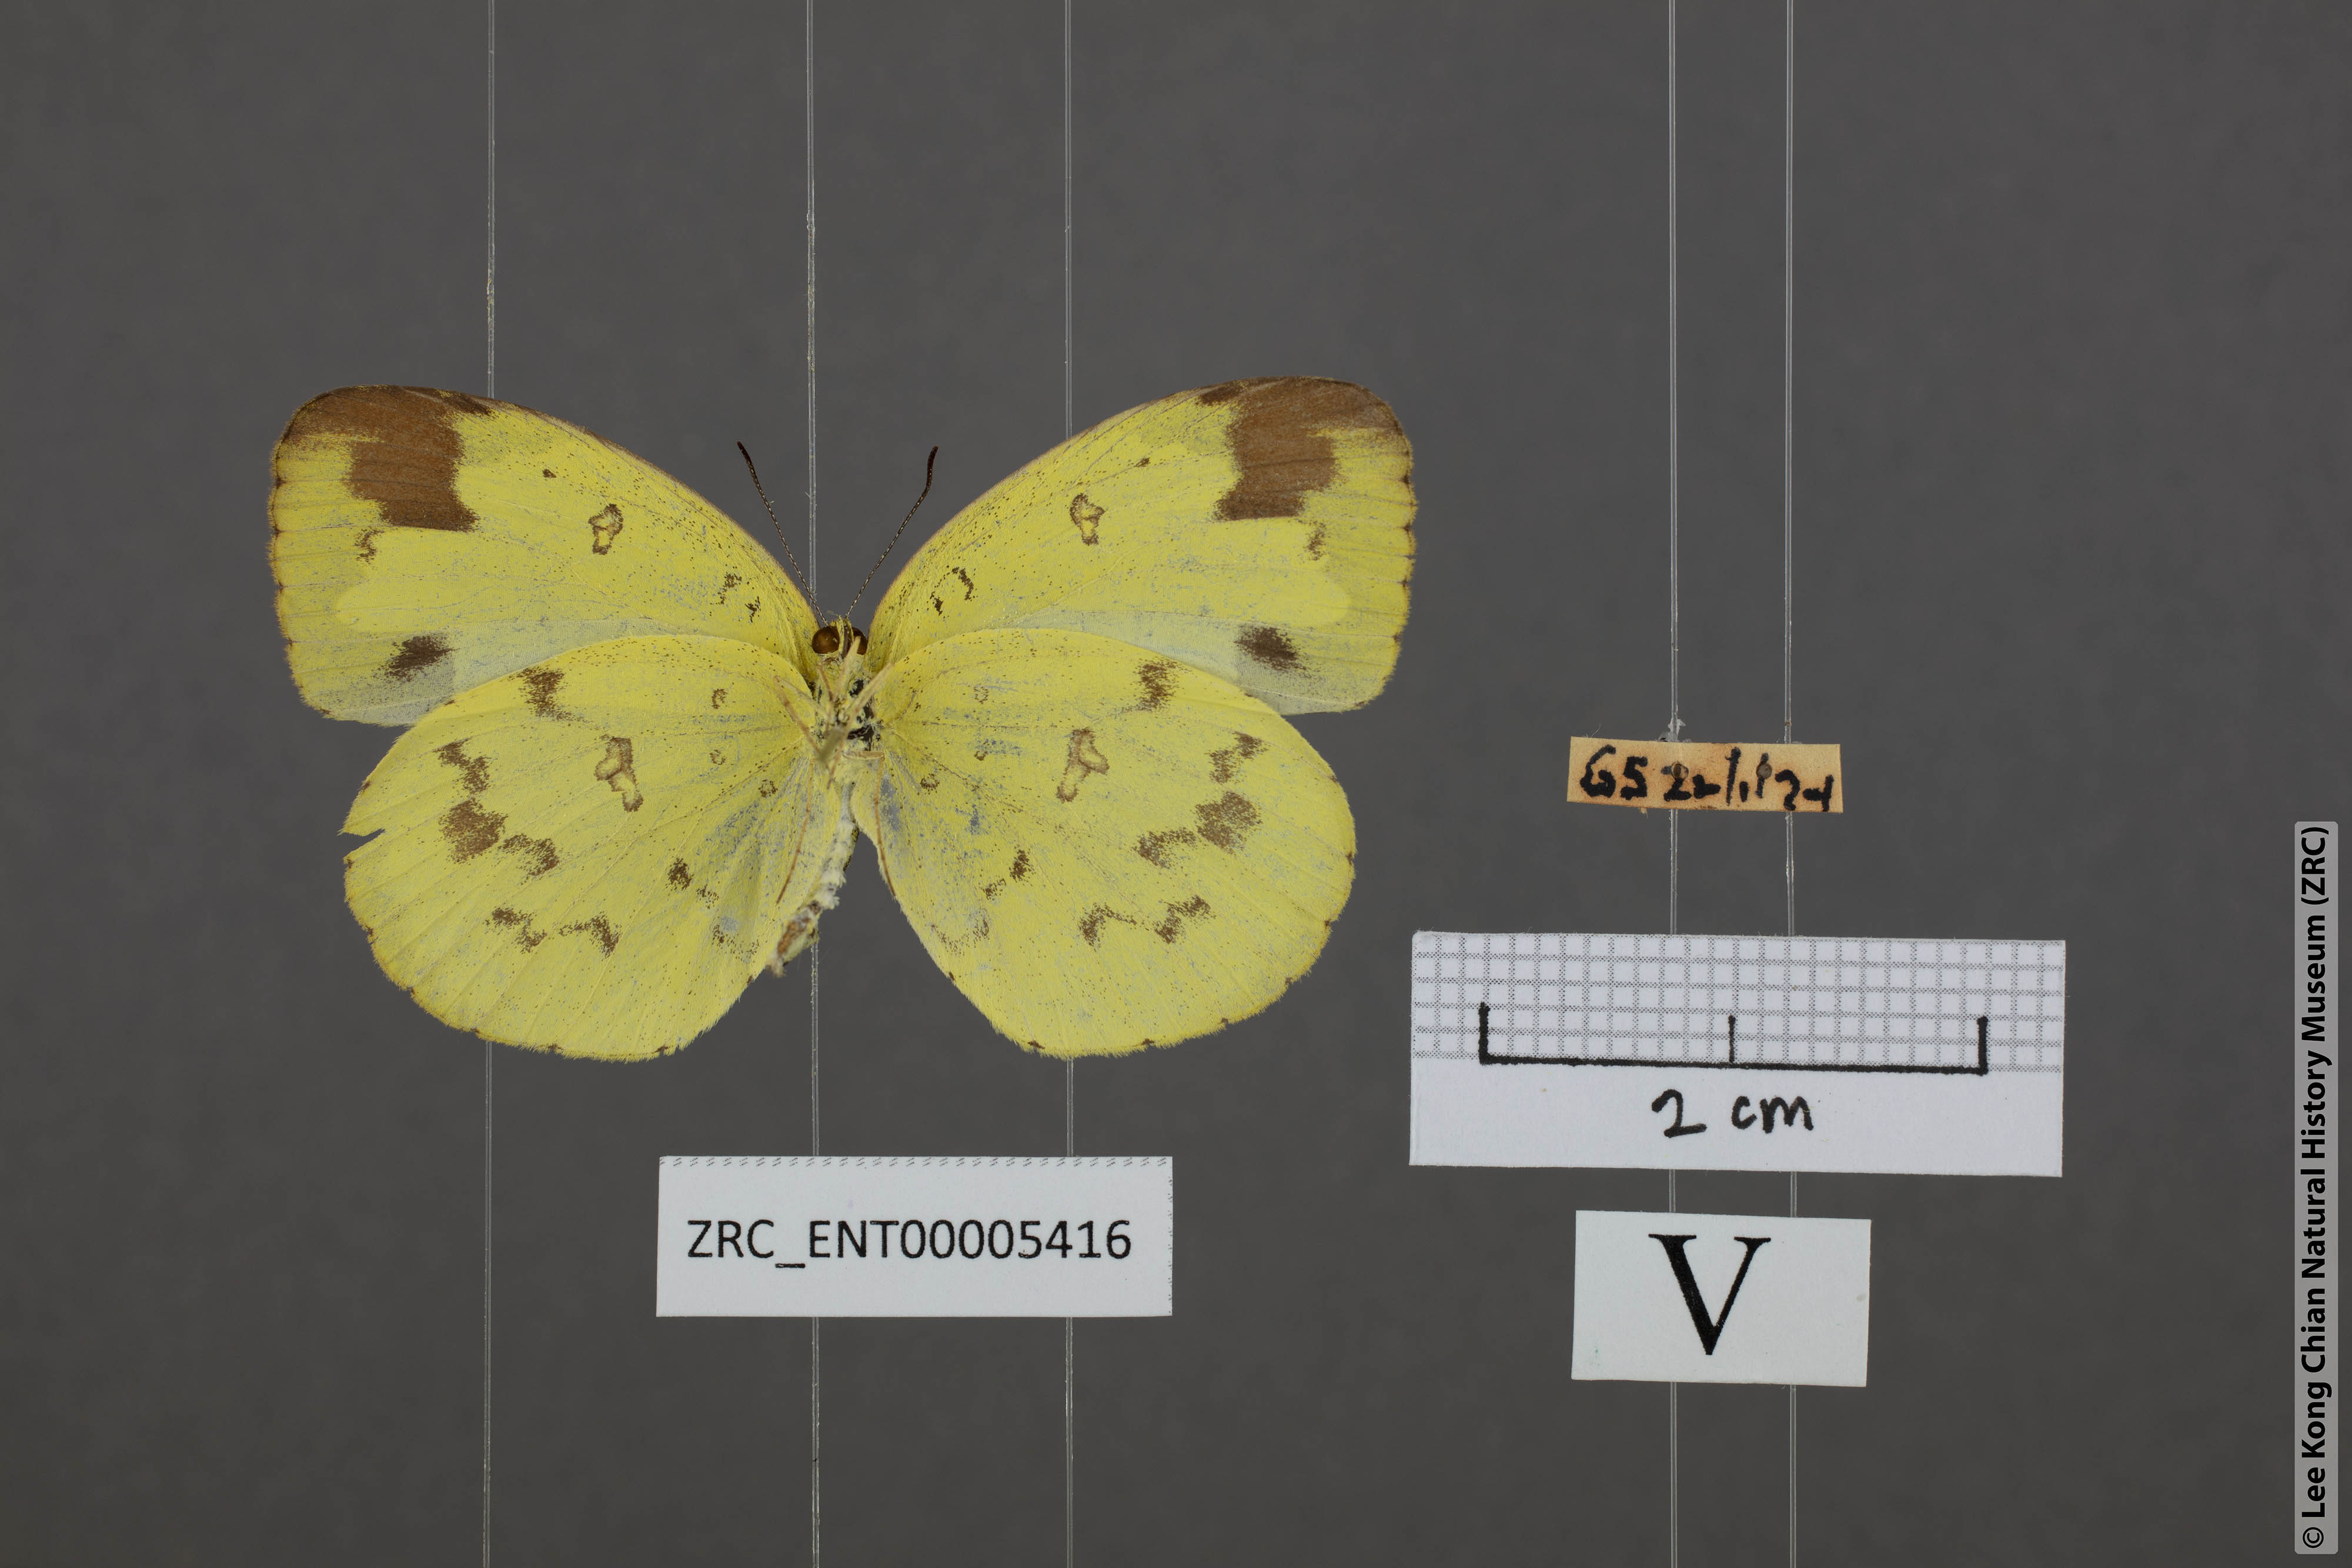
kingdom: Animalia
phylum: Arthropoda
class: Insecta
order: Lepidoptera
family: Pieridae
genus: Eurema
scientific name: Eurema andersoni
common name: One-spot yellow grass
